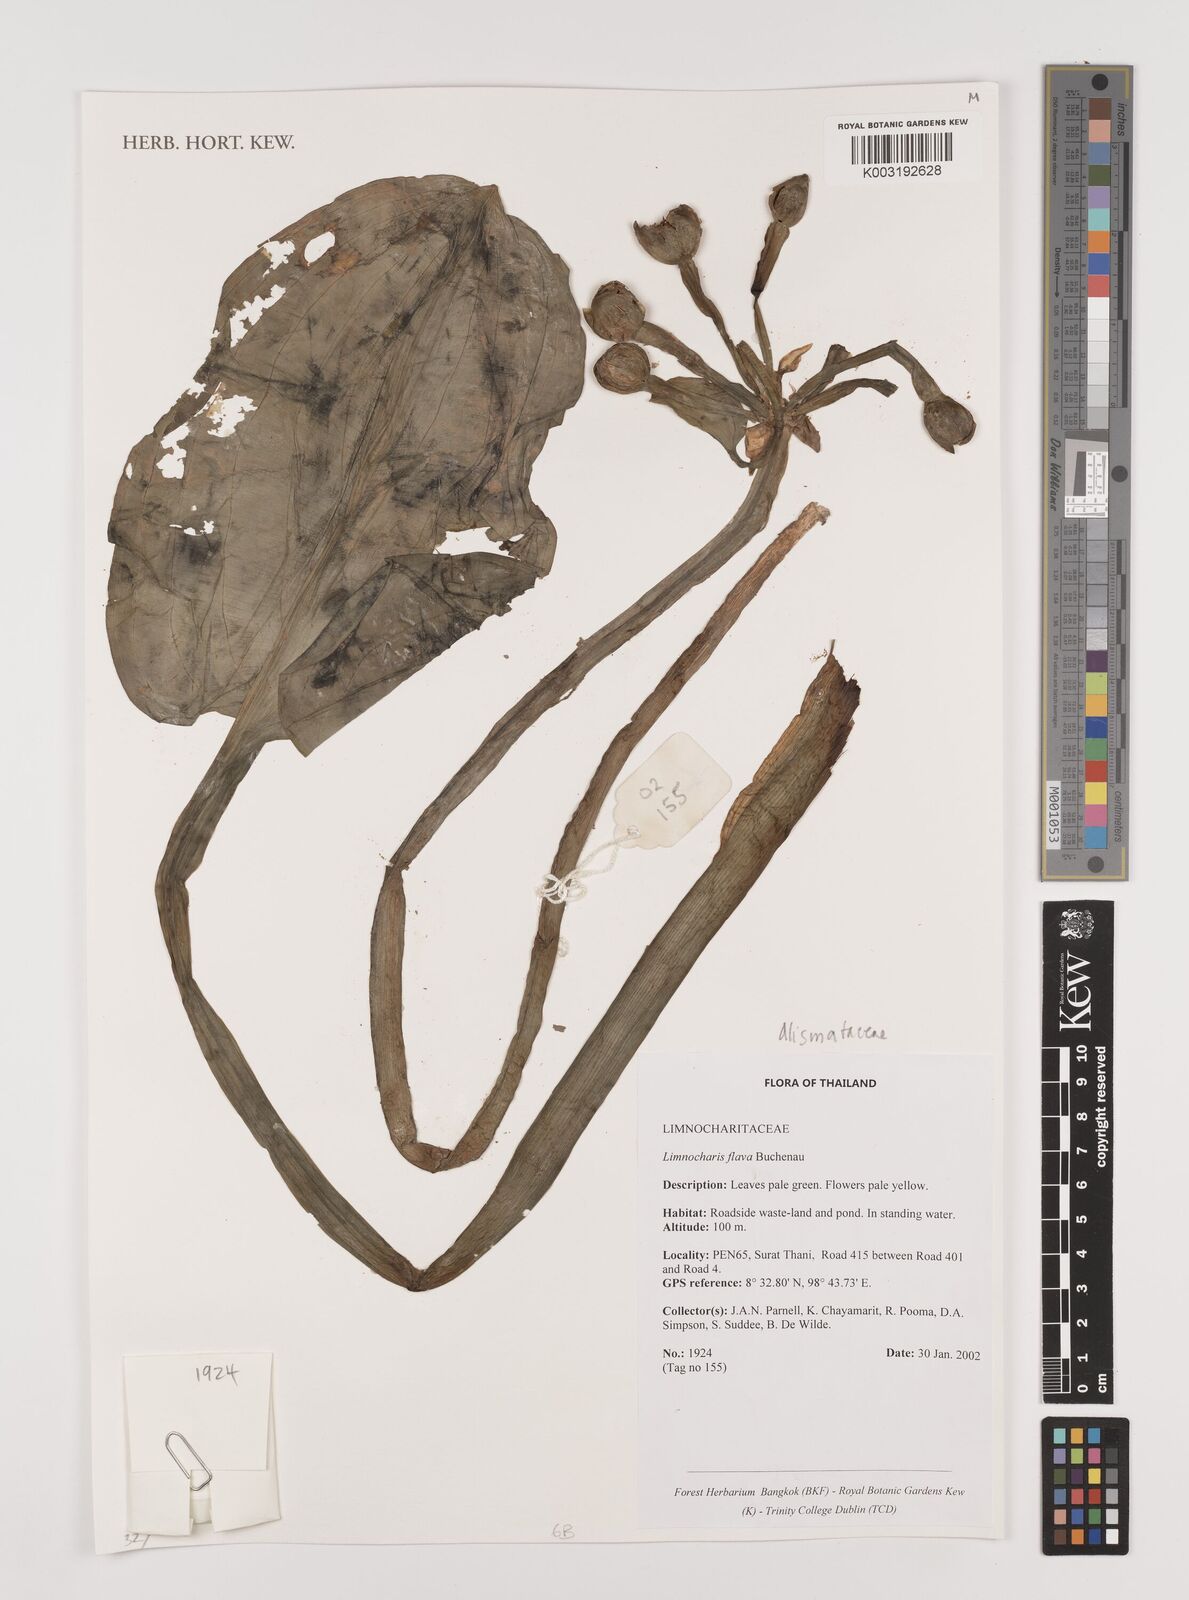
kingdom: Plantae
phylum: Tracheophyta
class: Liliopsida
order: Alismatales
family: Alismataceae
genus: Limnocharis
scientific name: Limnocharis flava
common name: Sawah-flower-rush
